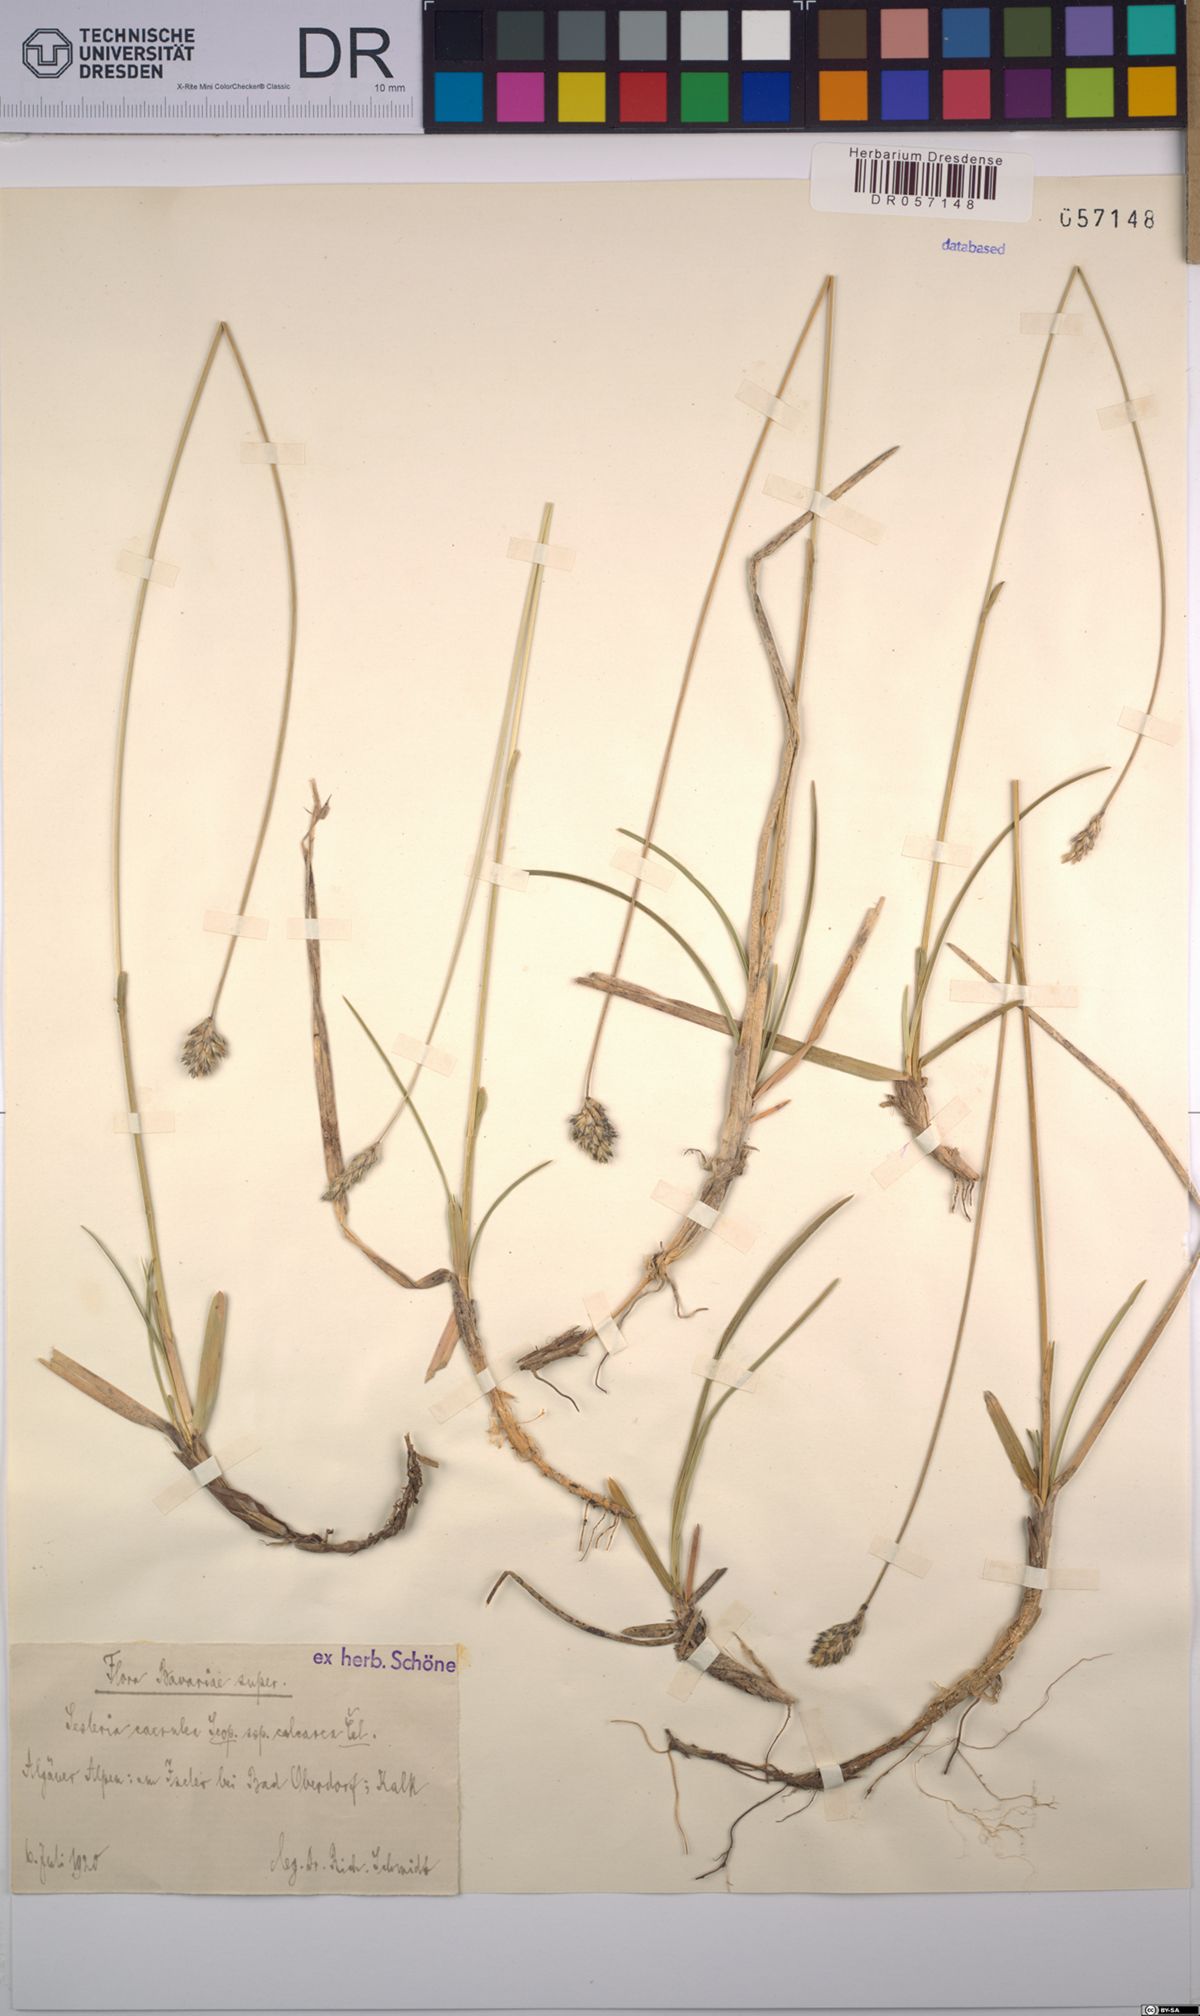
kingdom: Plantae
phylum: Tracheophyta
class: Liliopsida
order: Poales
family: Poaceae
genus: Sesleria
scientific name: Sesleria caerulea
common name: Blue moor-grass
